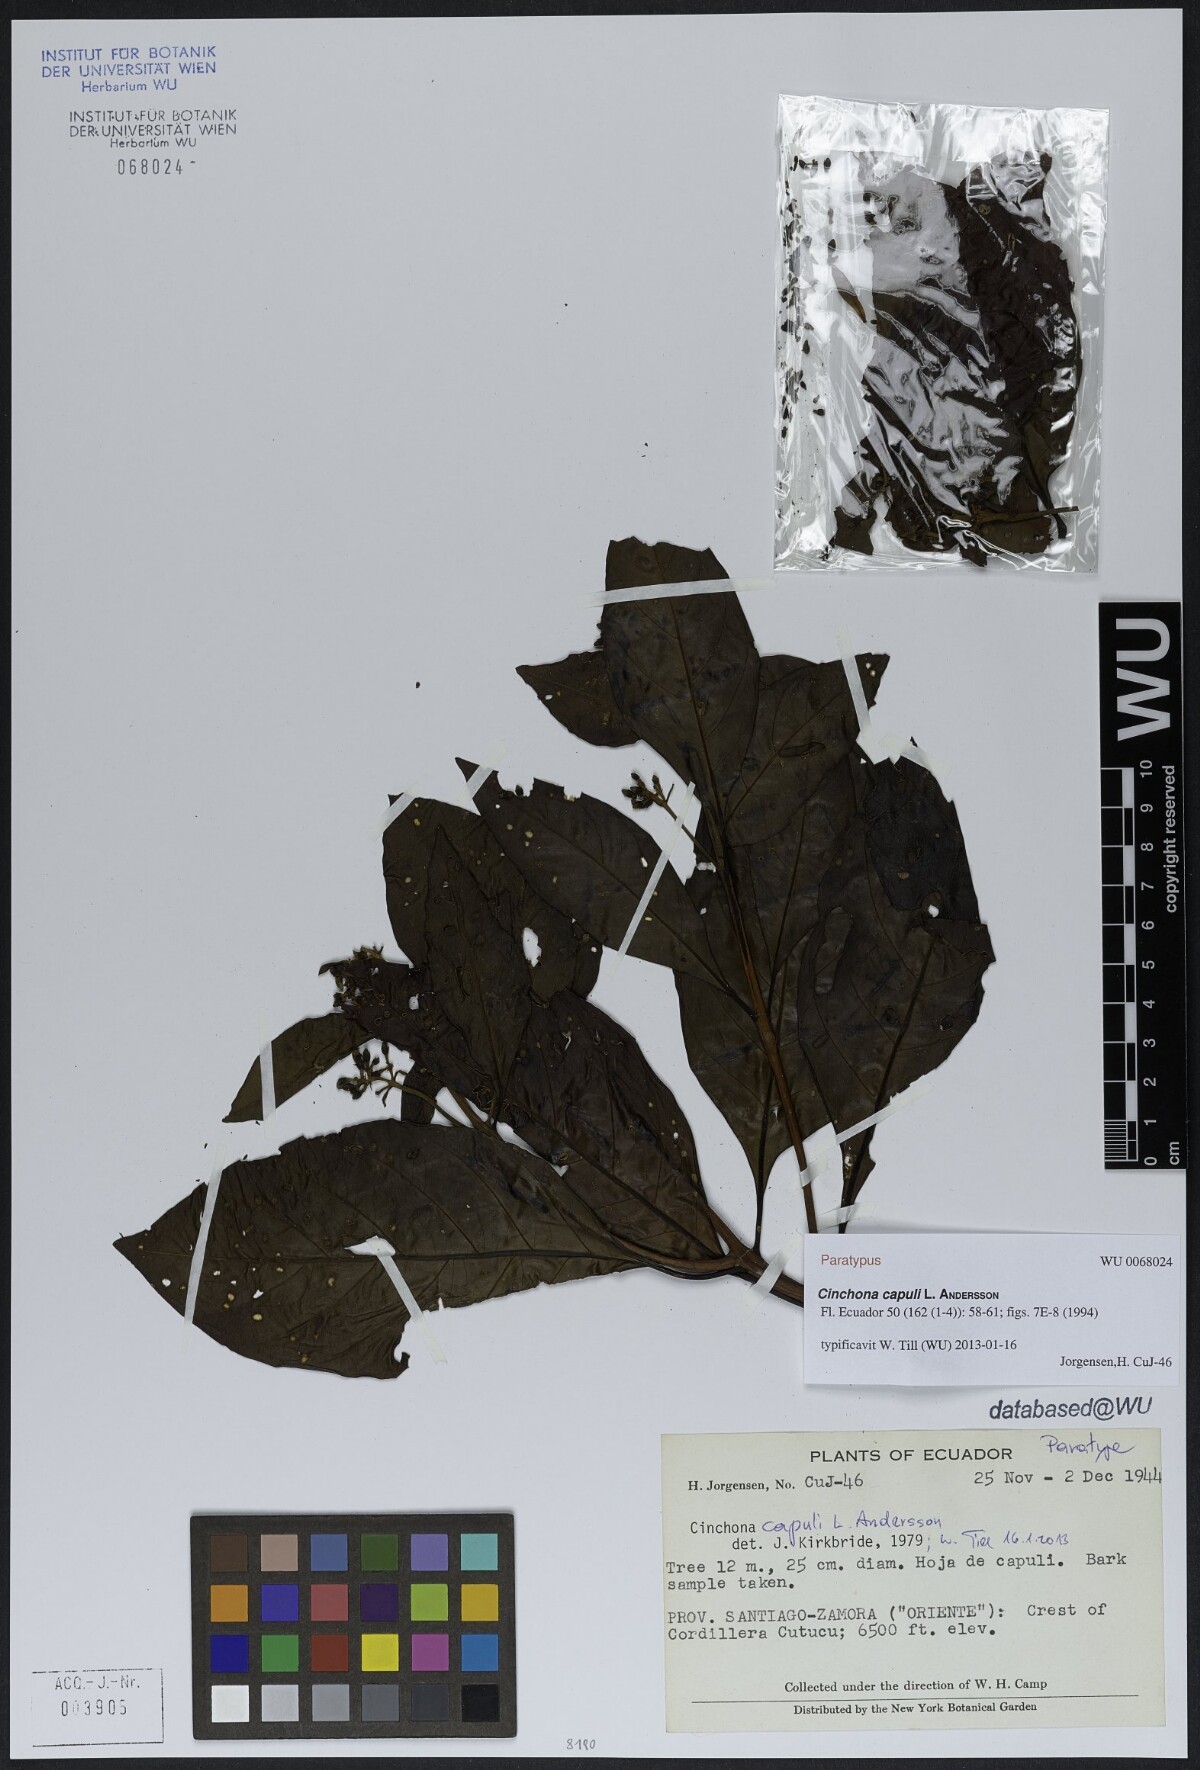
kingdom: Plantae
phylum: Tracheophyta
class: Magnoliopsida
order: Gentianales
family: Rubiaceae
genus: Cinchona
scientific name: Cinchona capuli
